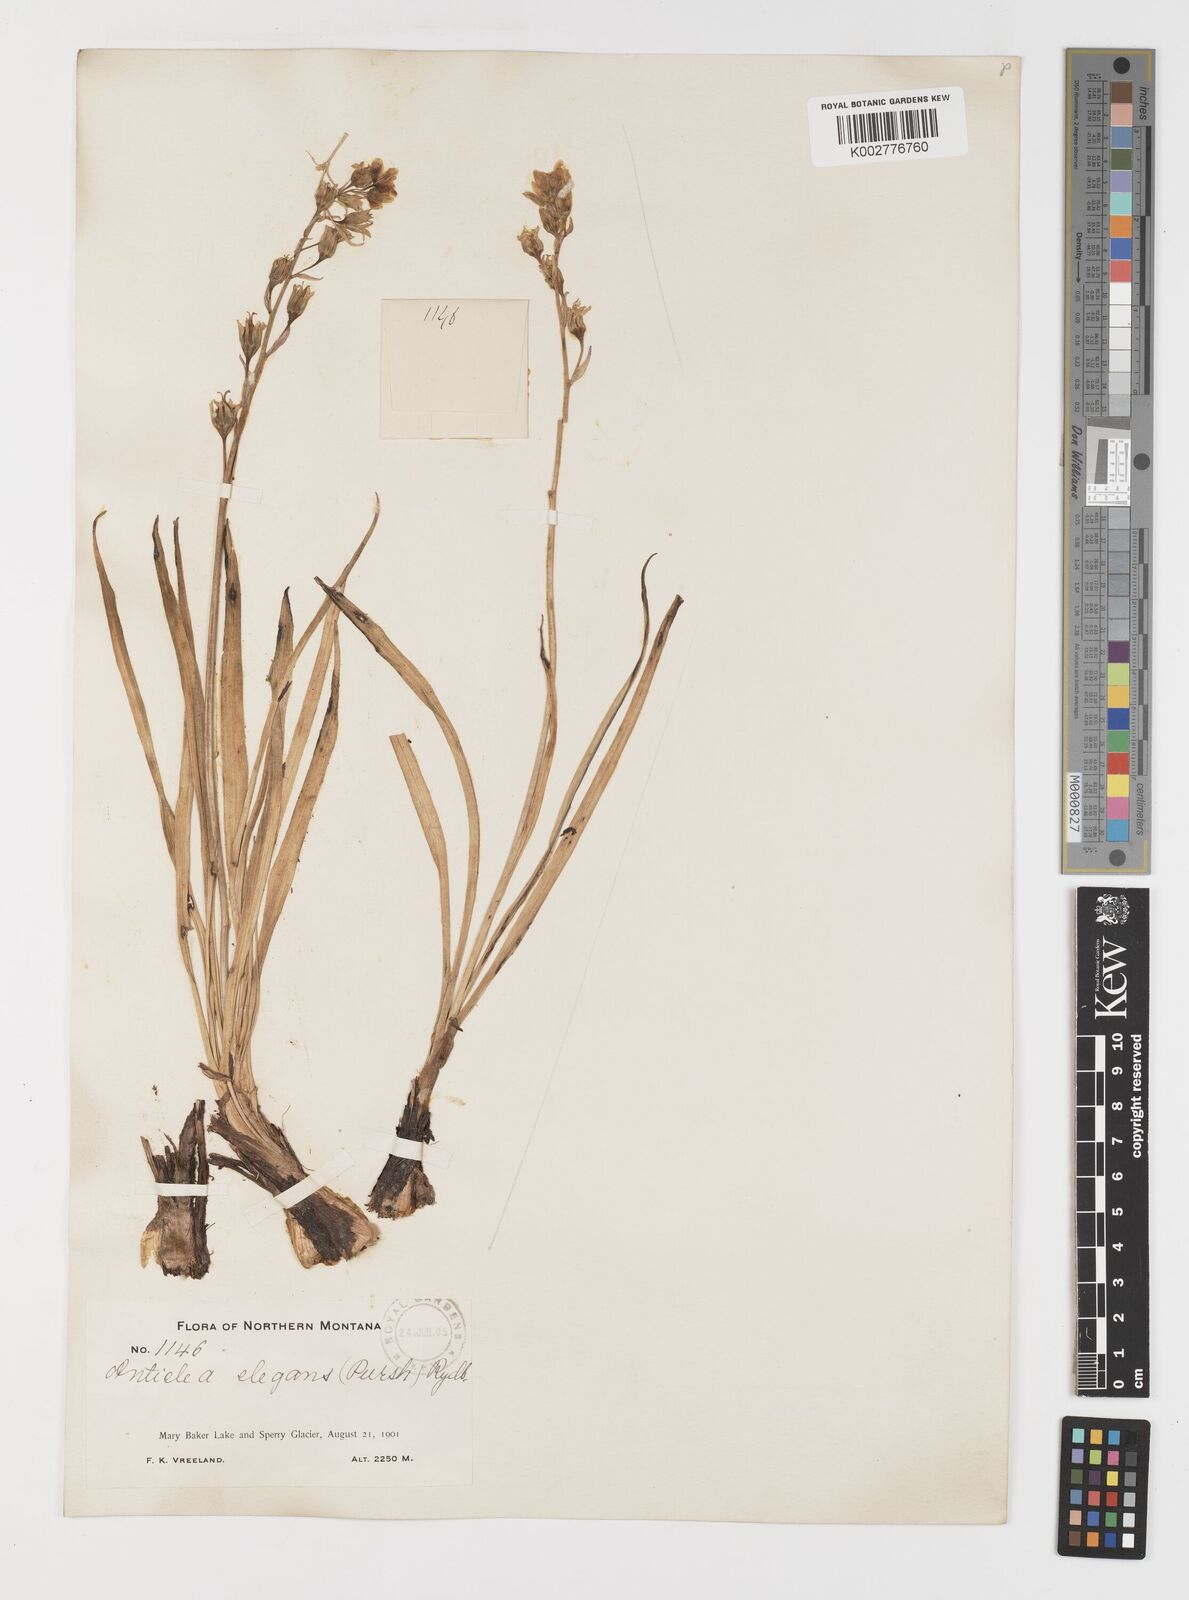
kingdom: Plantae
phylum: Tracheophyta
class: Liliopsida
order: Liliales
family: Melanthiaceae
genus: Anticlea
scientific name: Anticlea elegans
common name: Mountain death camas
